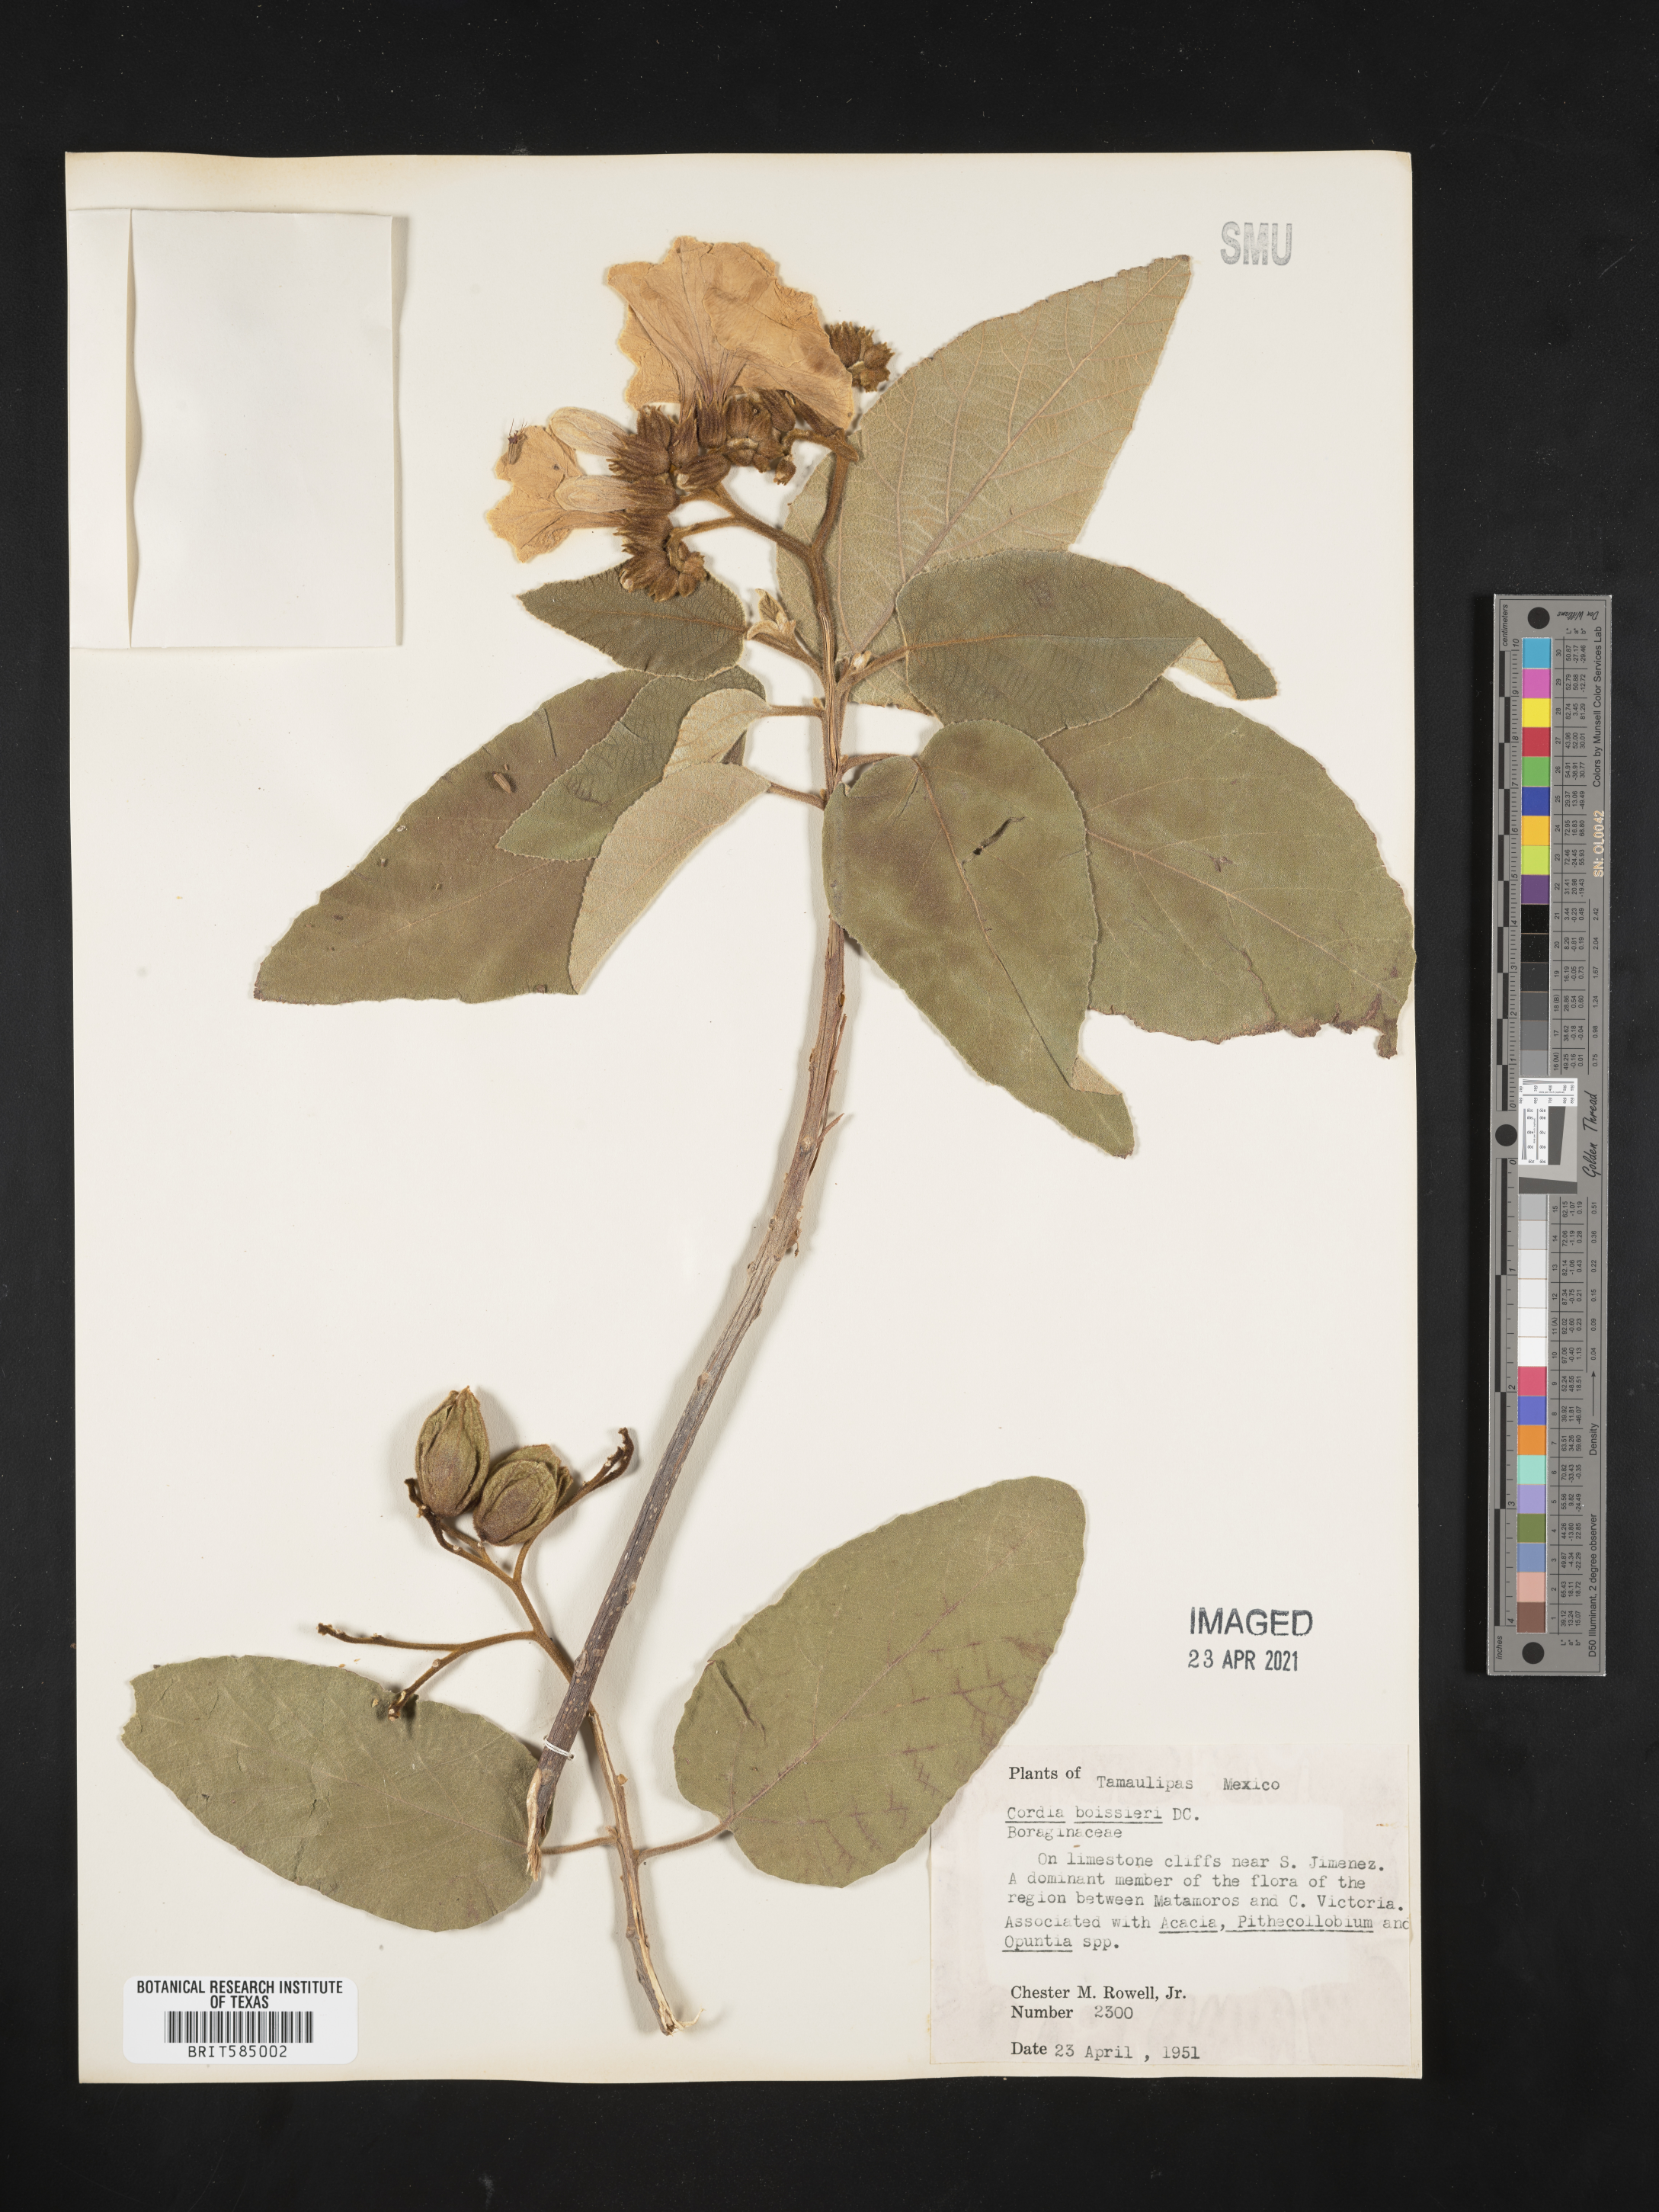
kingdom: Plantae
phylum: Tracheophyta
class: Magnoliopsida
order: Boraginales
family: Cordiaceae
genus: Cordia
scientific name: Cordia boissieri
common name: Mexican-olive
